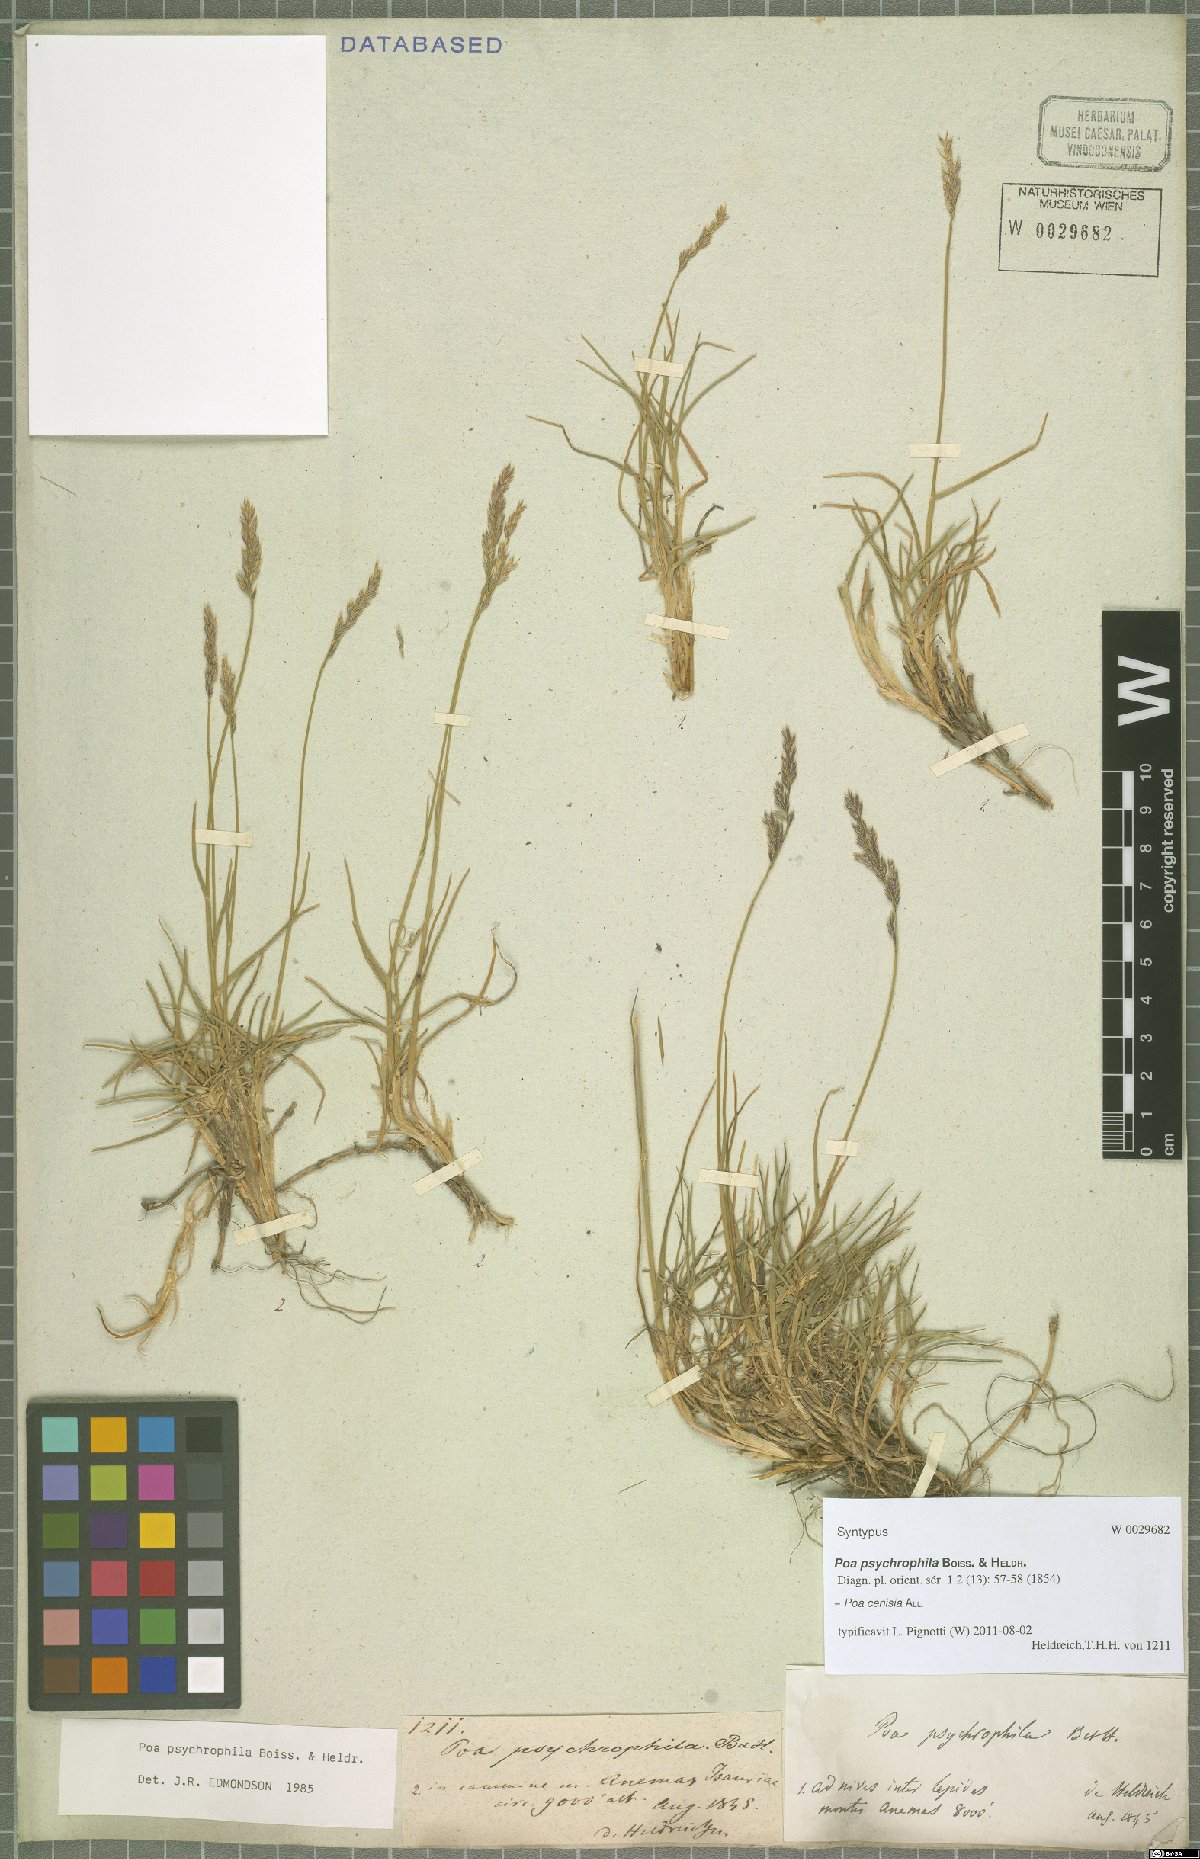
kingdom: Plantae
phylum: Tracheophyta
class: Liliopsida
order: Poales
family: Poaceae
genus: Poa
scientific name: Poa cenisia
